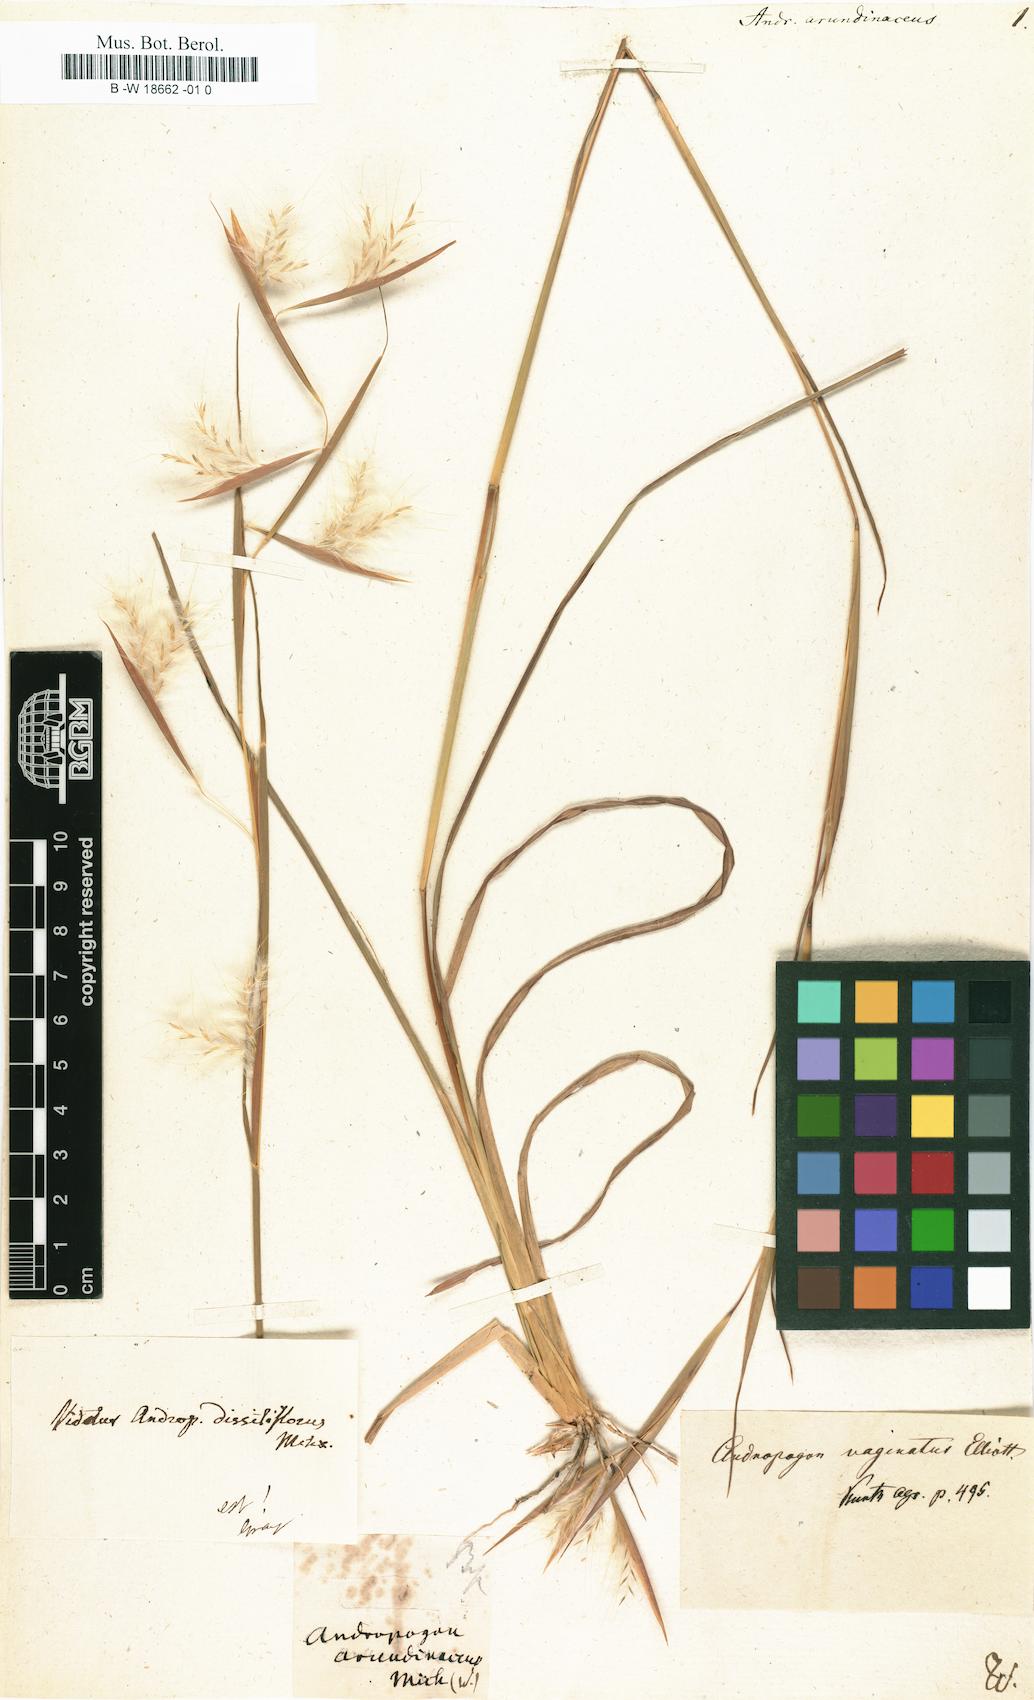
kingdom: Plantae
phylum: Tracheophyta
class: Liliopsida
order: Poales
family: Poaceae
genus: Capeochloa
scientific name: Capeochloa arundinacea
